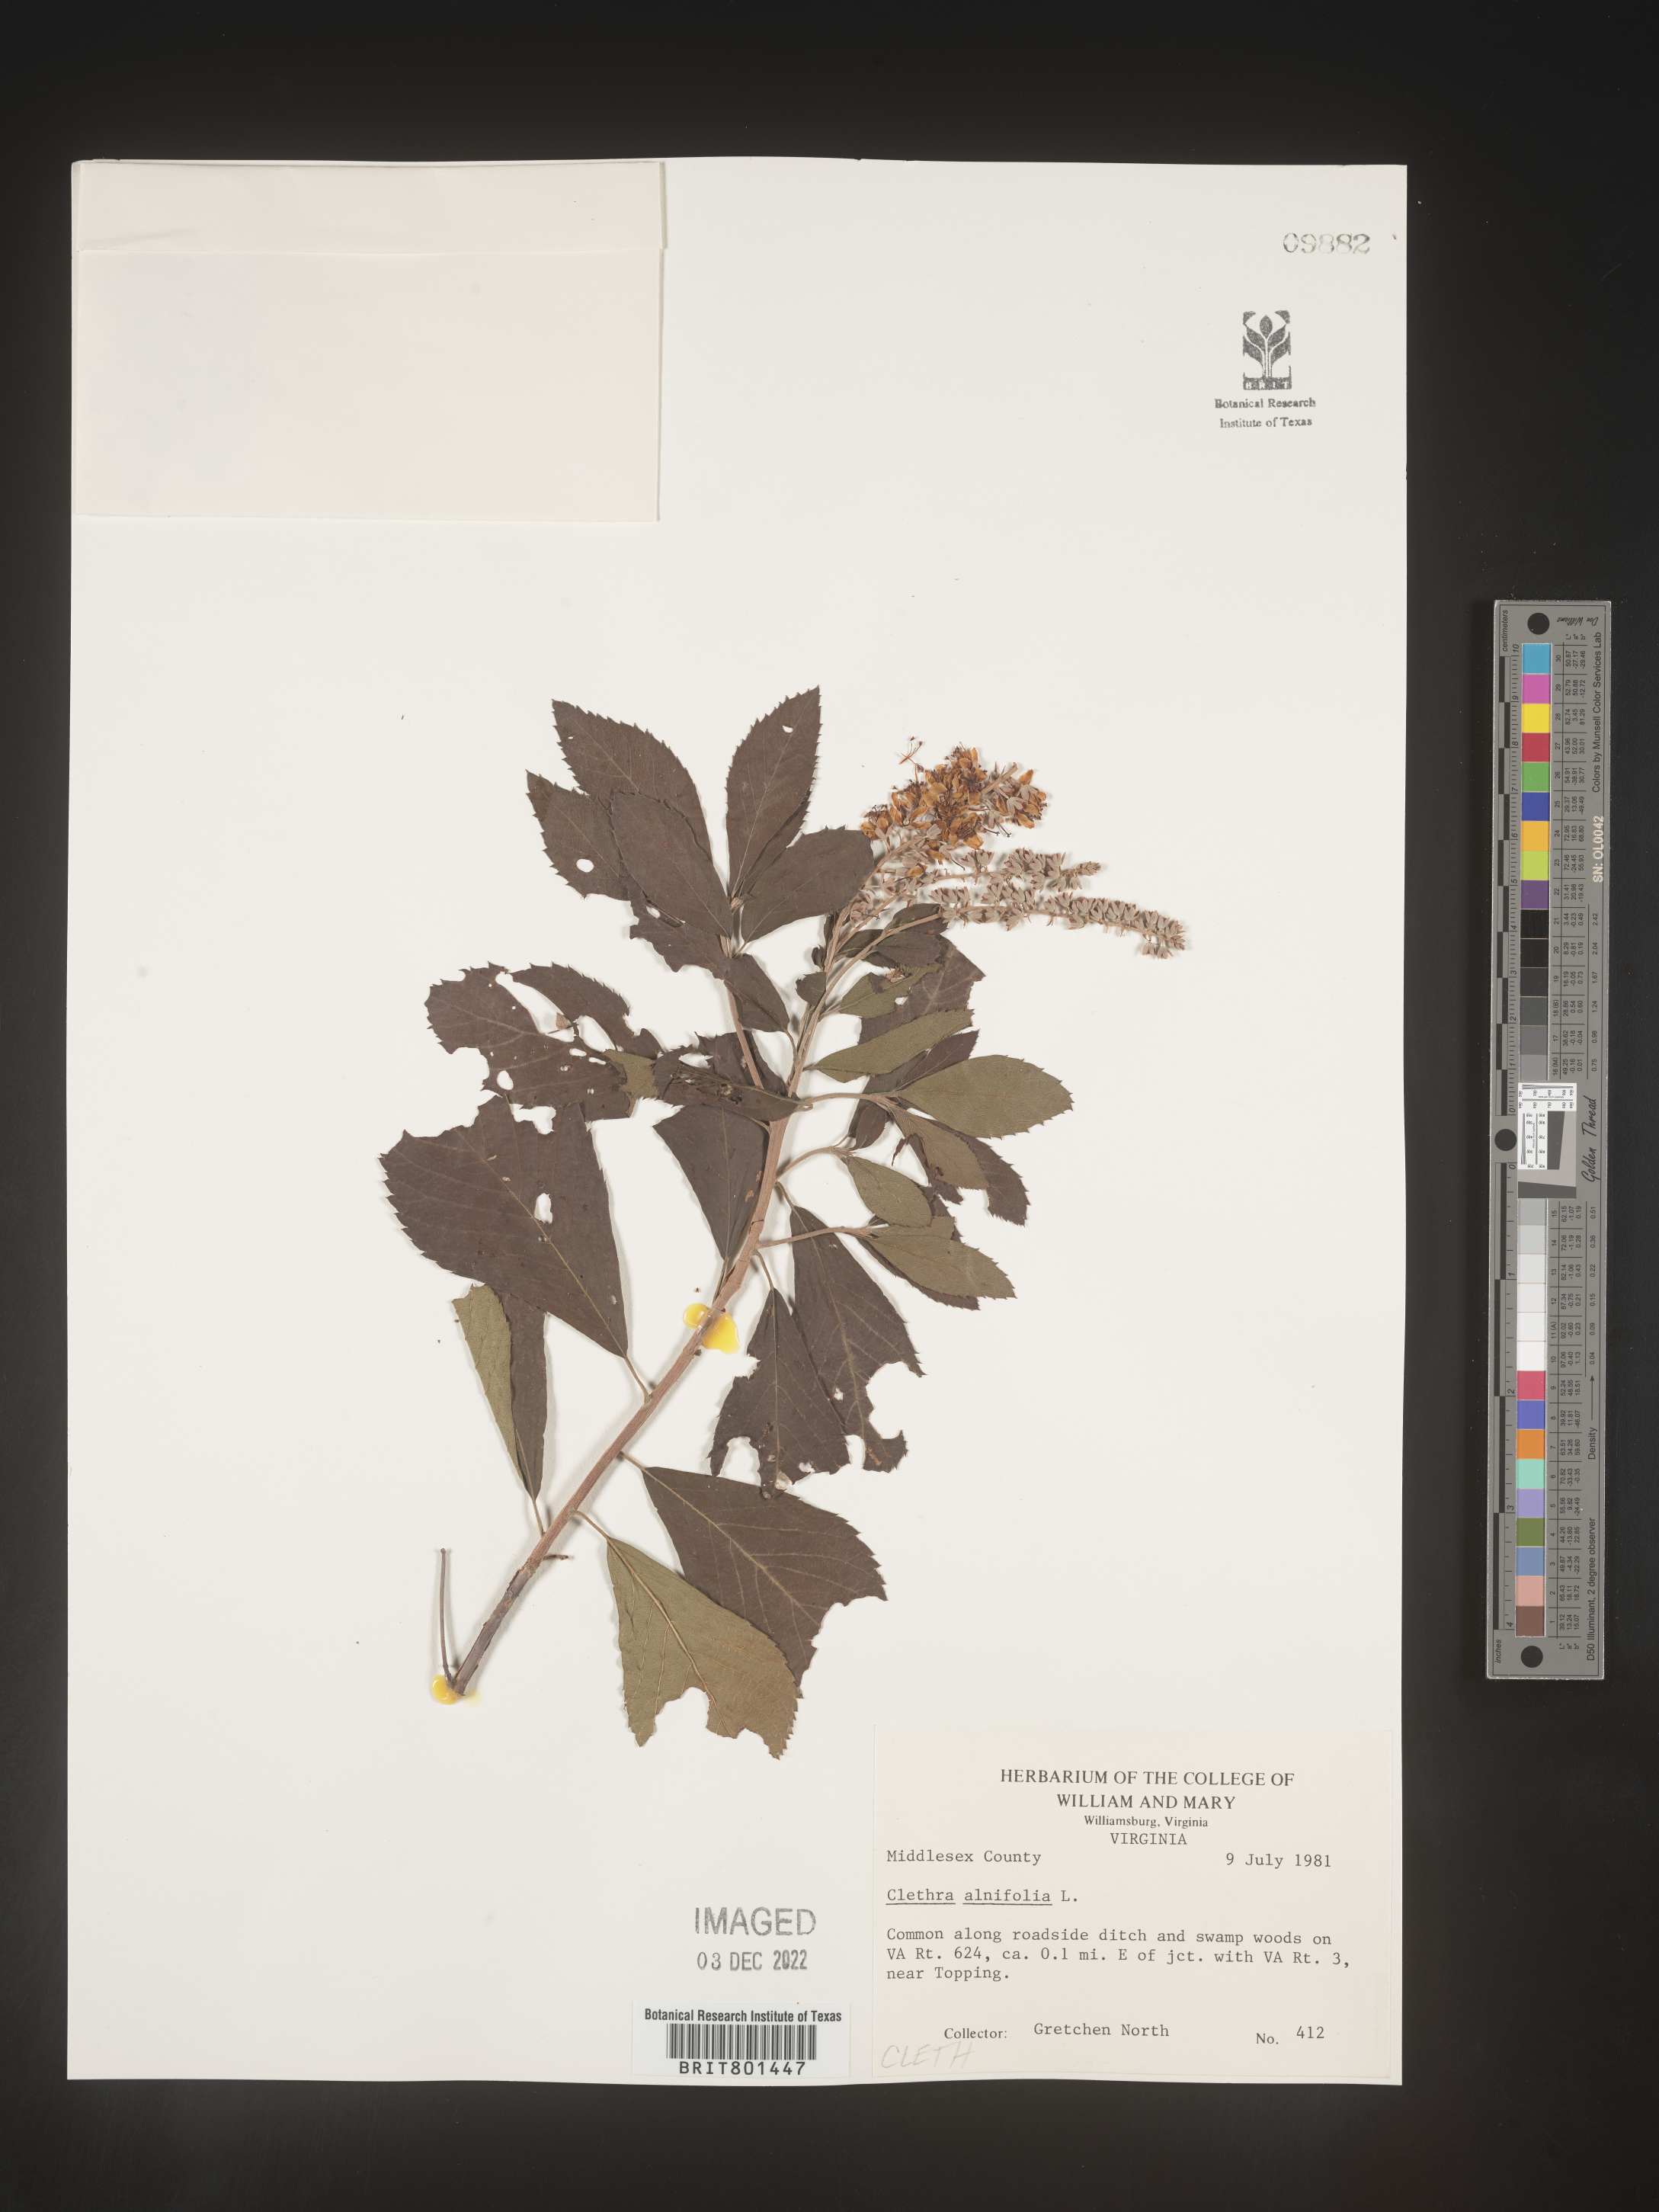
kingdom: Plantae
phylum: Tracheophyta
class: Magnoliopsida
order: Ericales
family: Clethraceae
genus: Clethra
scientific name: Clethra alnifolia
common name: Sweet pepperbush
